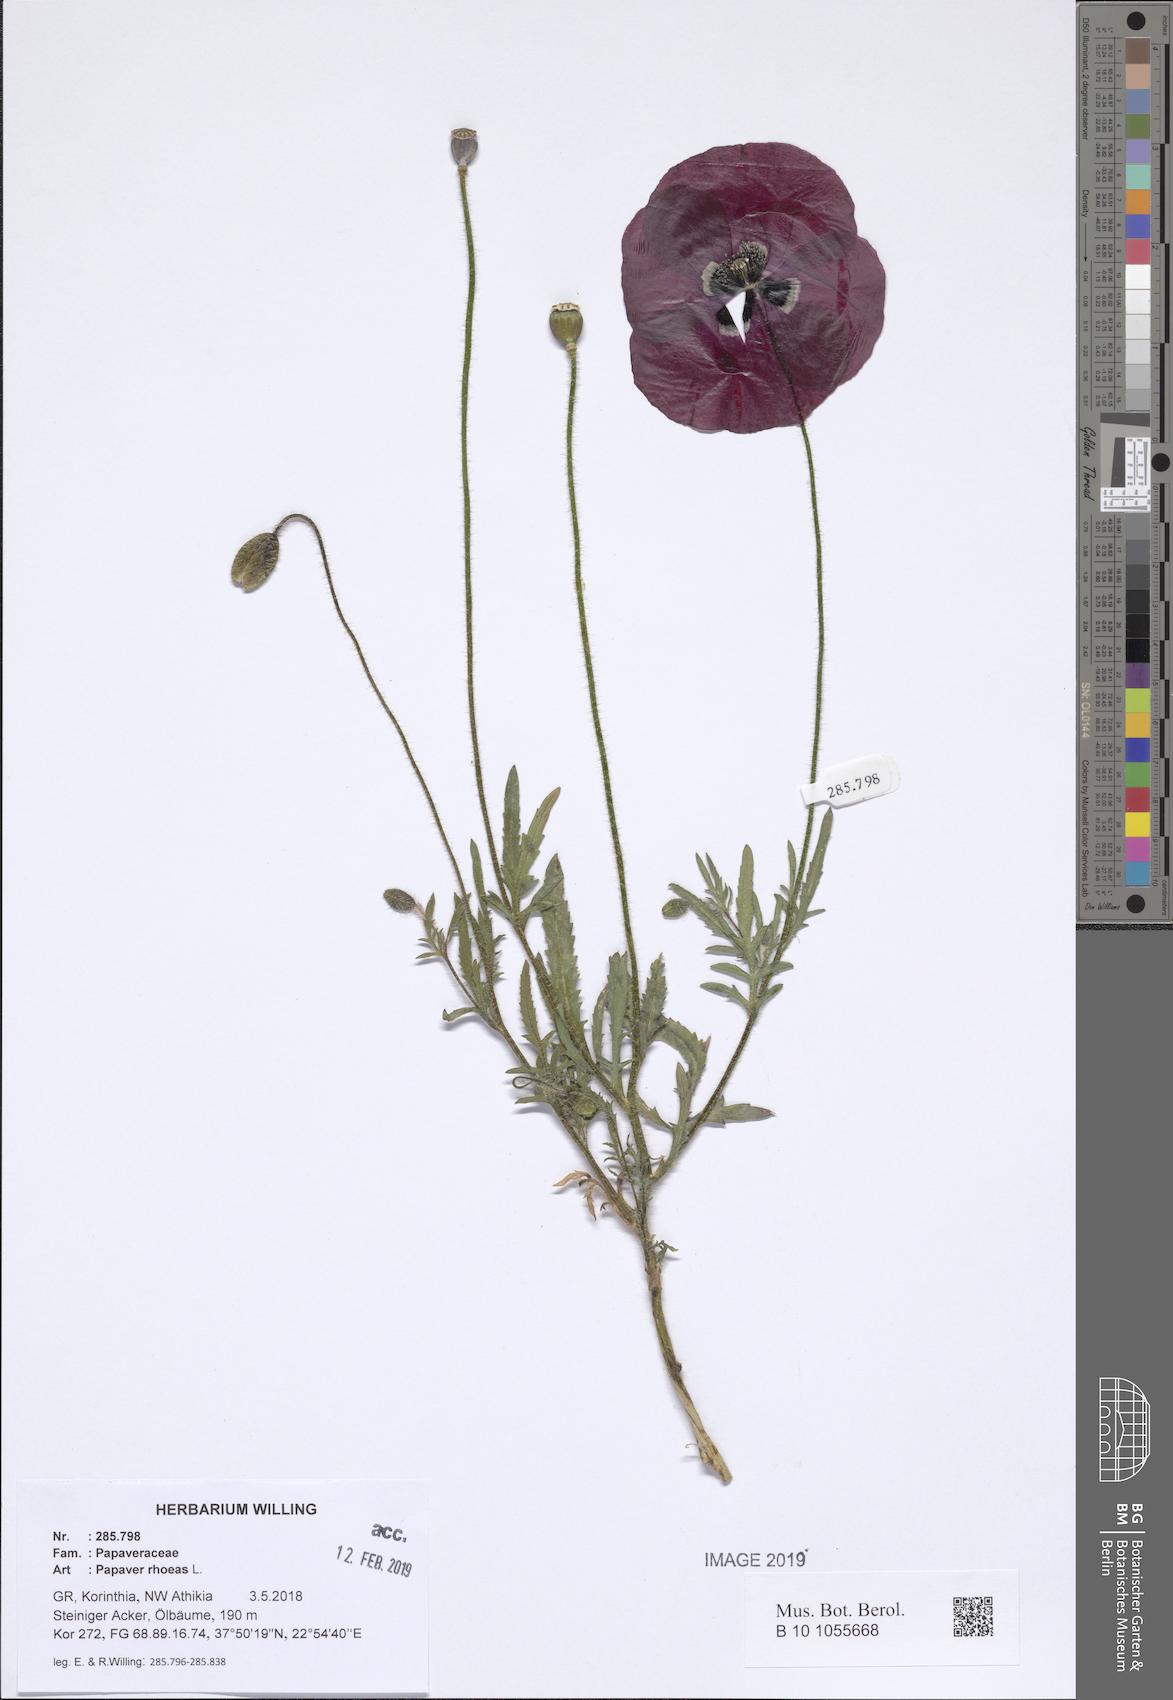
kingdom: Plantae
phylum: Tracheophyta
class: Magnoliopsida
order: Ranunculales
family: Papaveraceae
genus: Papaver
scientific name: Papaver rhoeas
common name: Corn poppy
